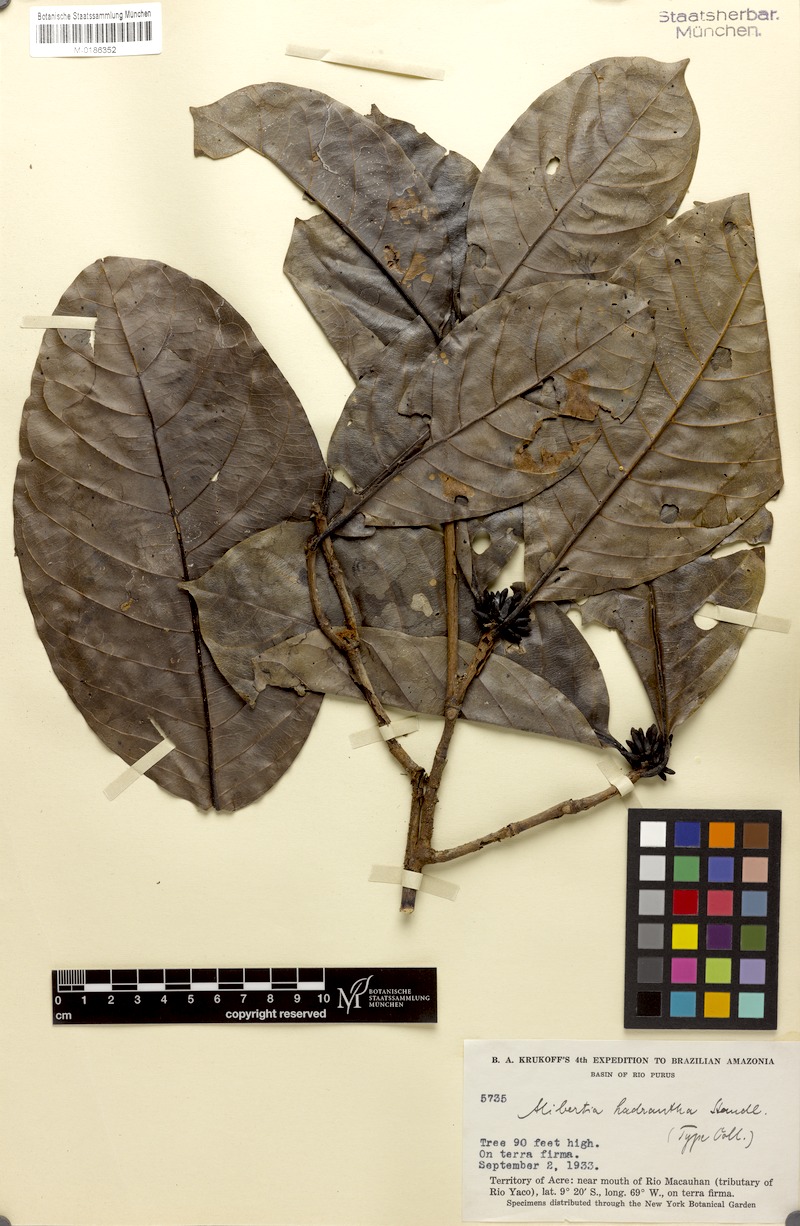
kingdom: Plantae
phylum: Tracheophyta
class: Magnoliopsida
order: Gentianales
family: Rubiaceae
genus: Cordiera
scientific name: Cordiera hadrantha
